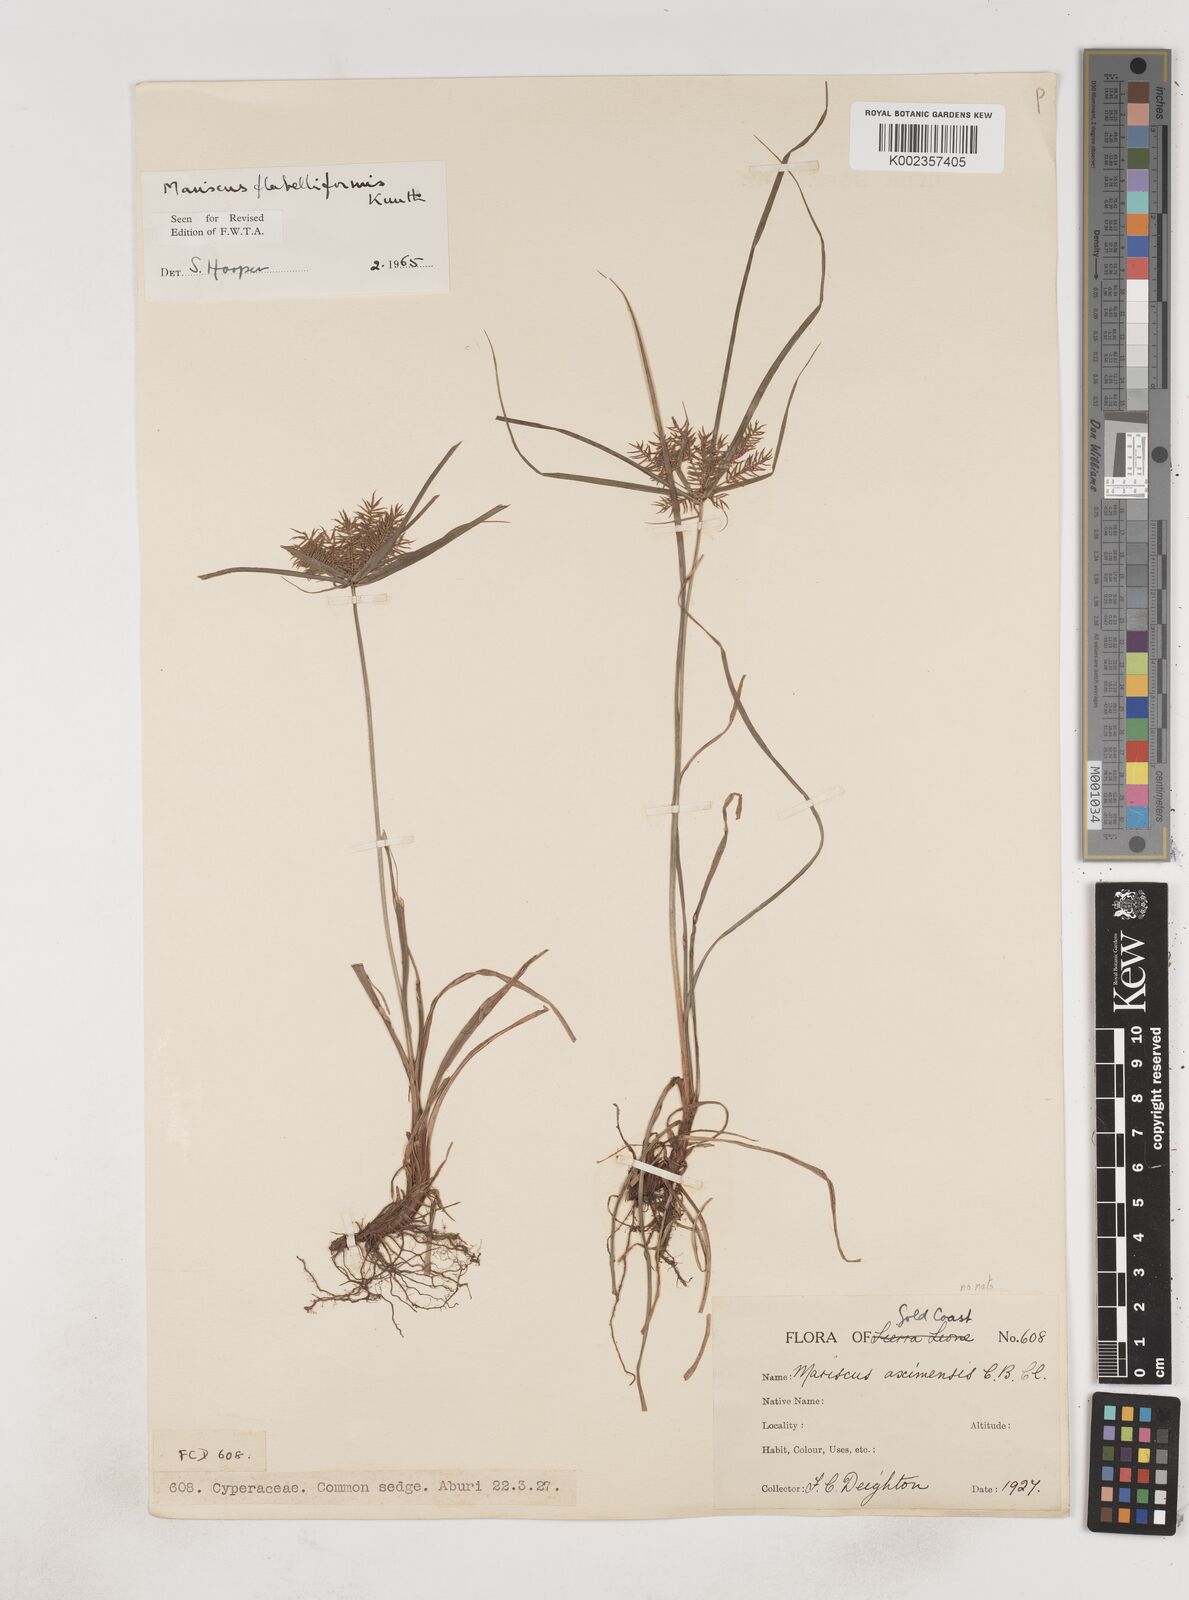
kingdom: Plantae
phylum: Tracheophyta
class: Liliopsida
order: Poales
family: Cyperaceae
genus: Cyperus
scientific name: Cyperus tenuis
